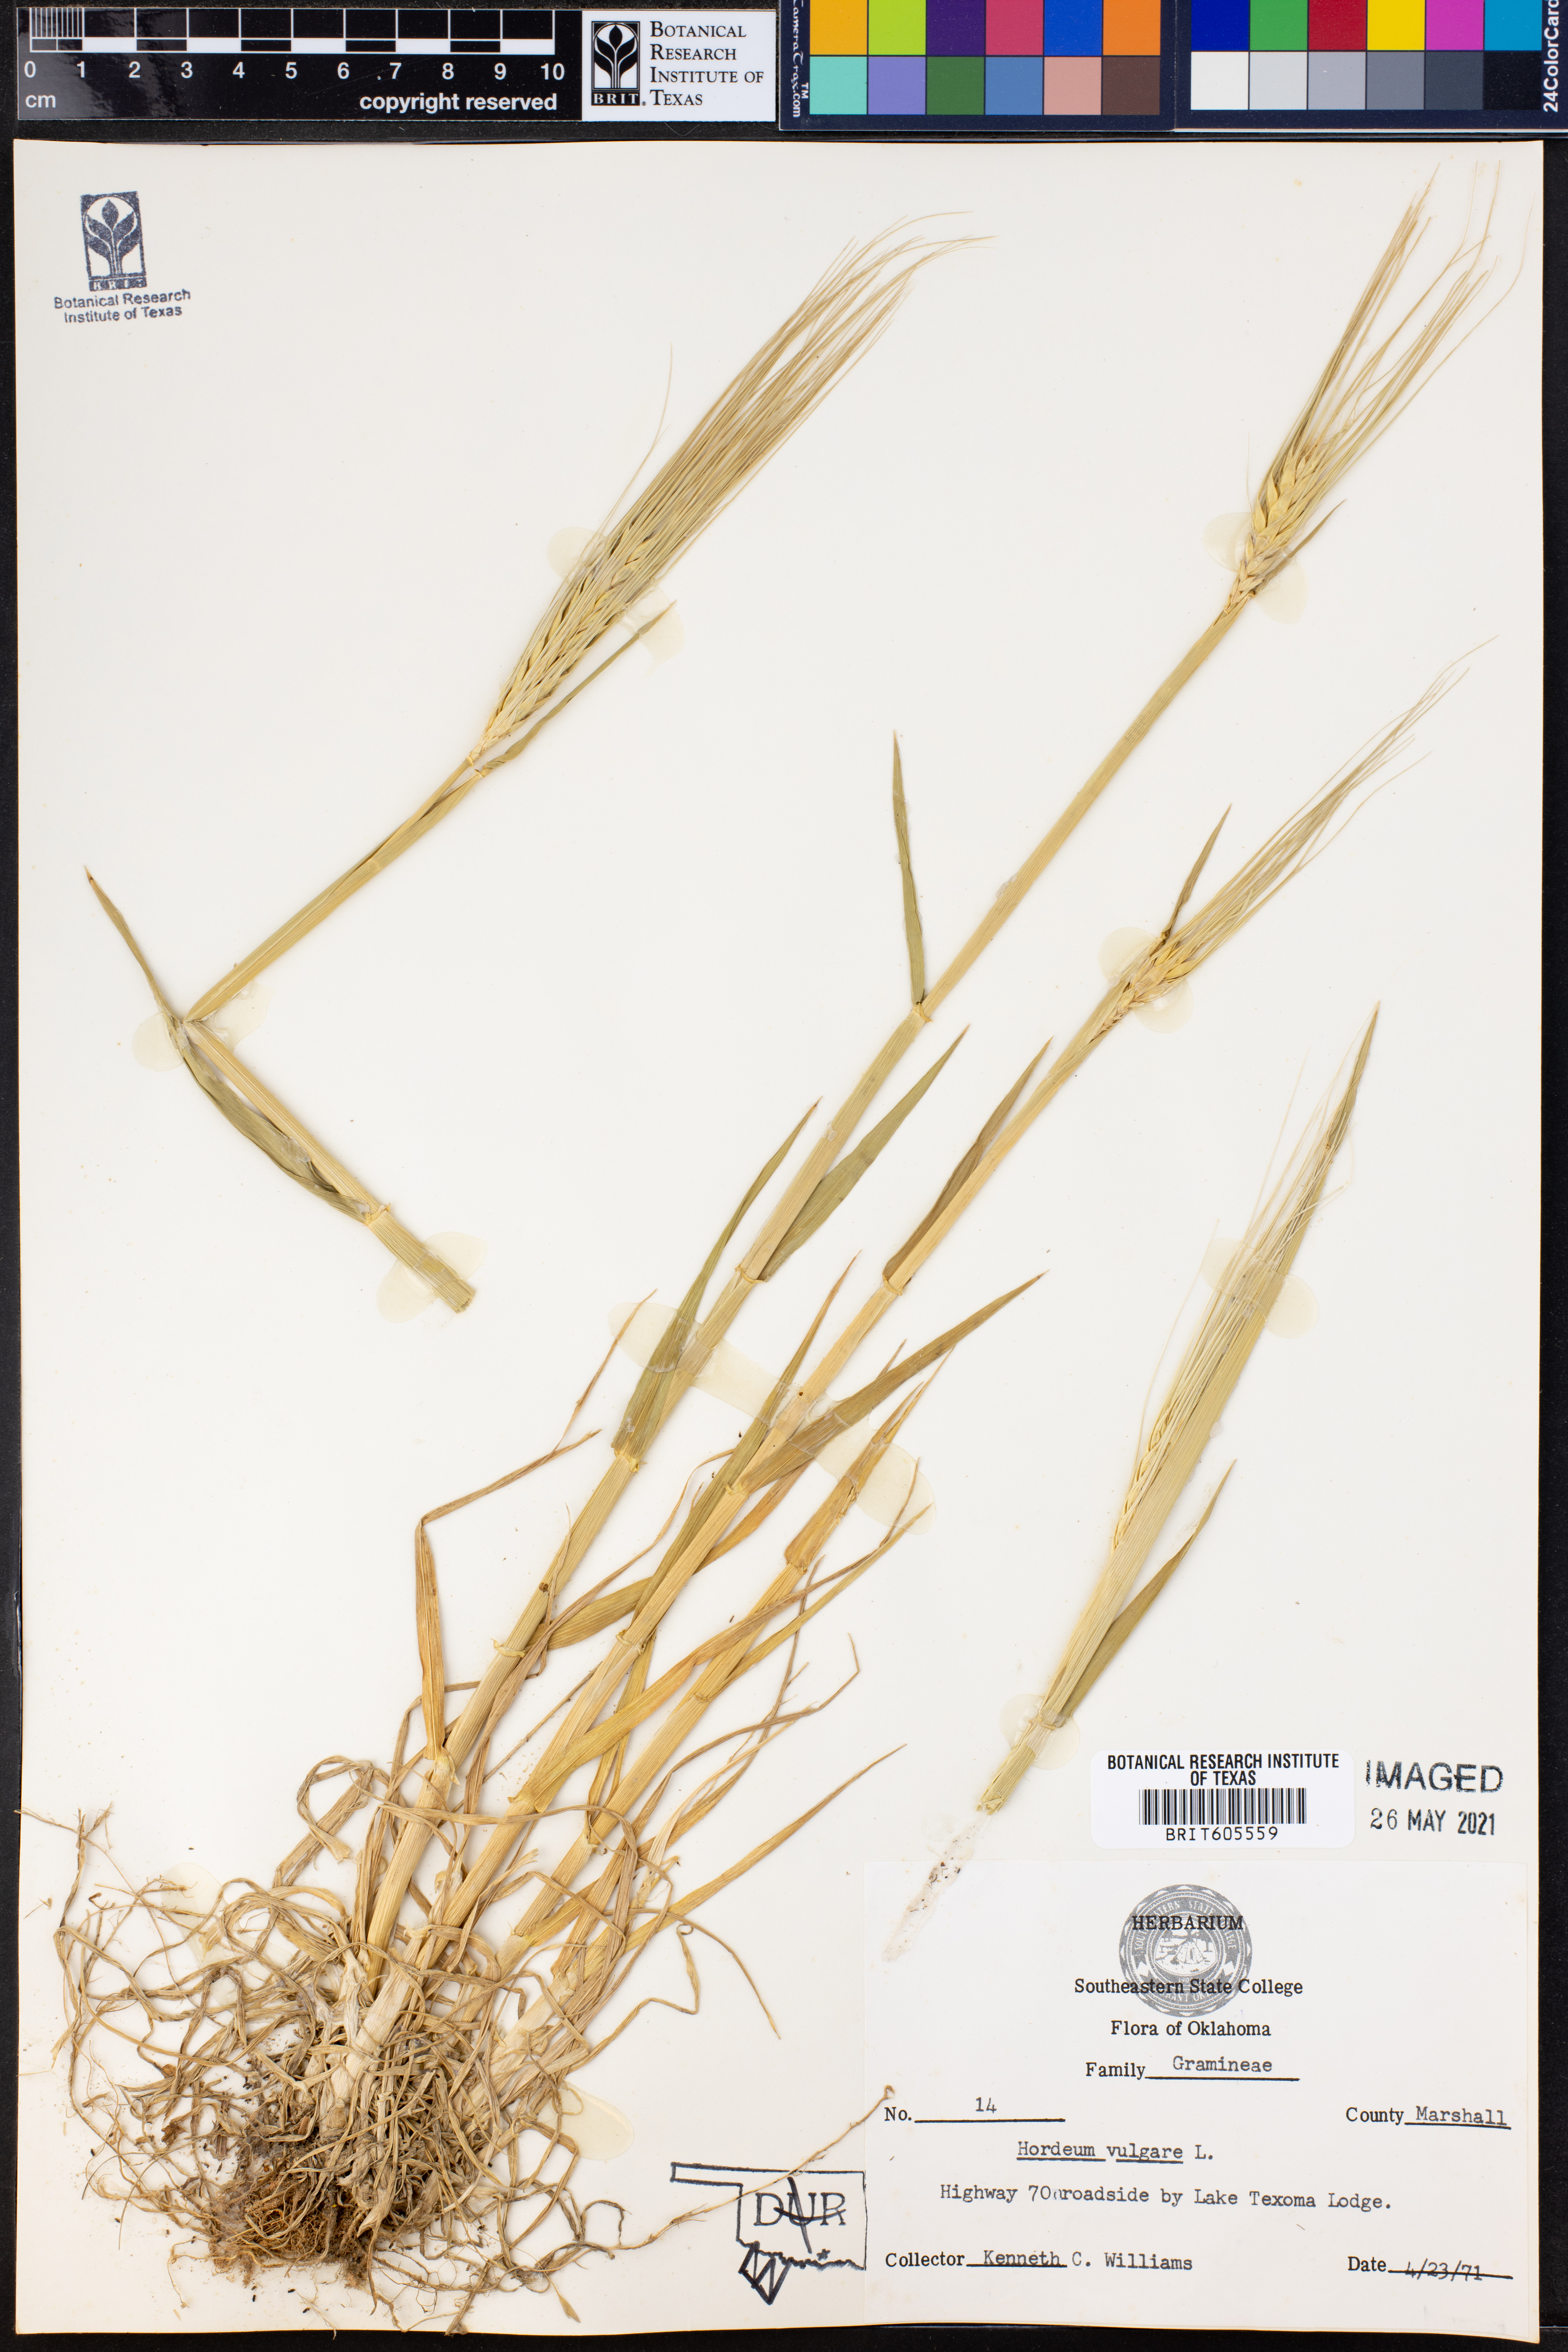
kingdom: Plantae
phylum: Tracheophyta
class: Liliopsida
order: Poales
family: Poaceae
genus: Hordeum
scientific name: Hordeum vulgare
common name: Common barley
